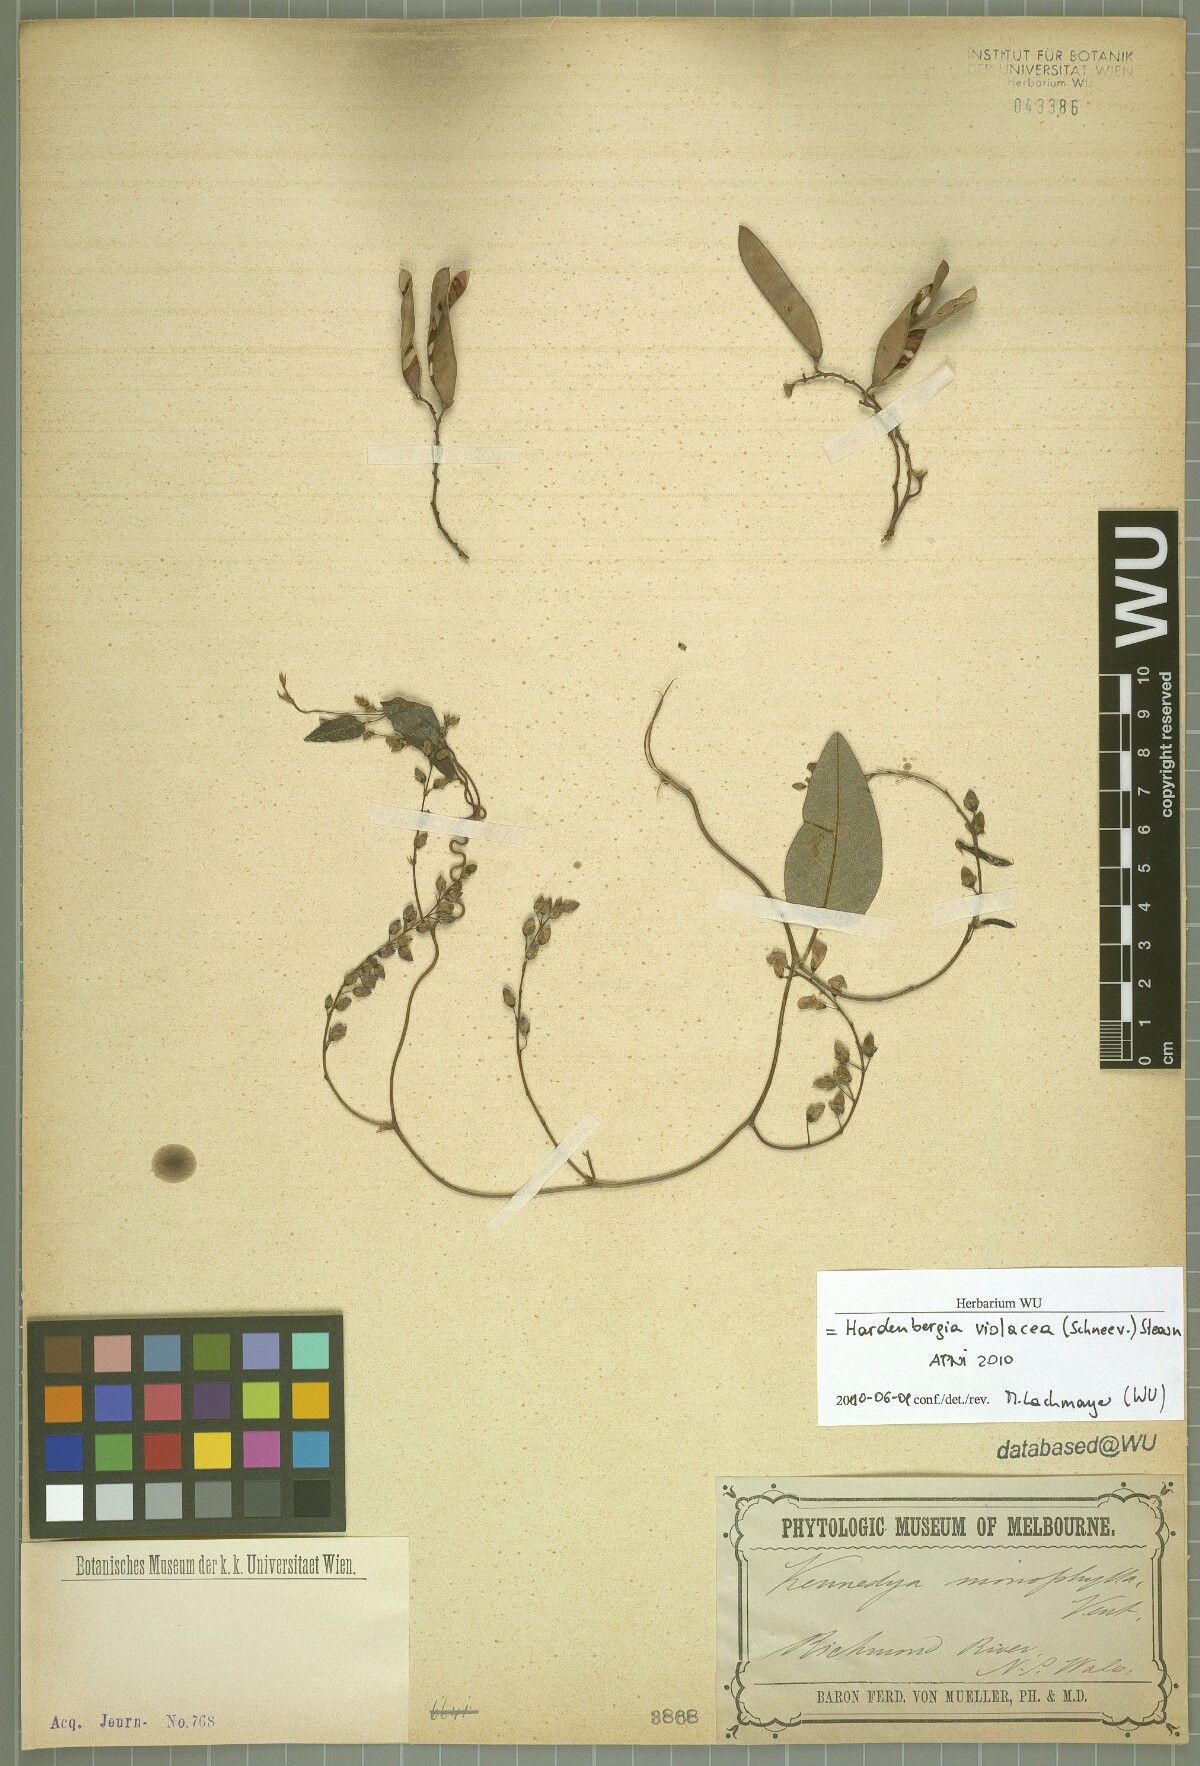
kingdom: Plantae
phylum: Tracheophyta
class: Magnoliopsida
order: Fabales
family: Fabaceae
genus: Hardenbergia
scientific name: Hardenbergia violacea
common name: Coral-pea
